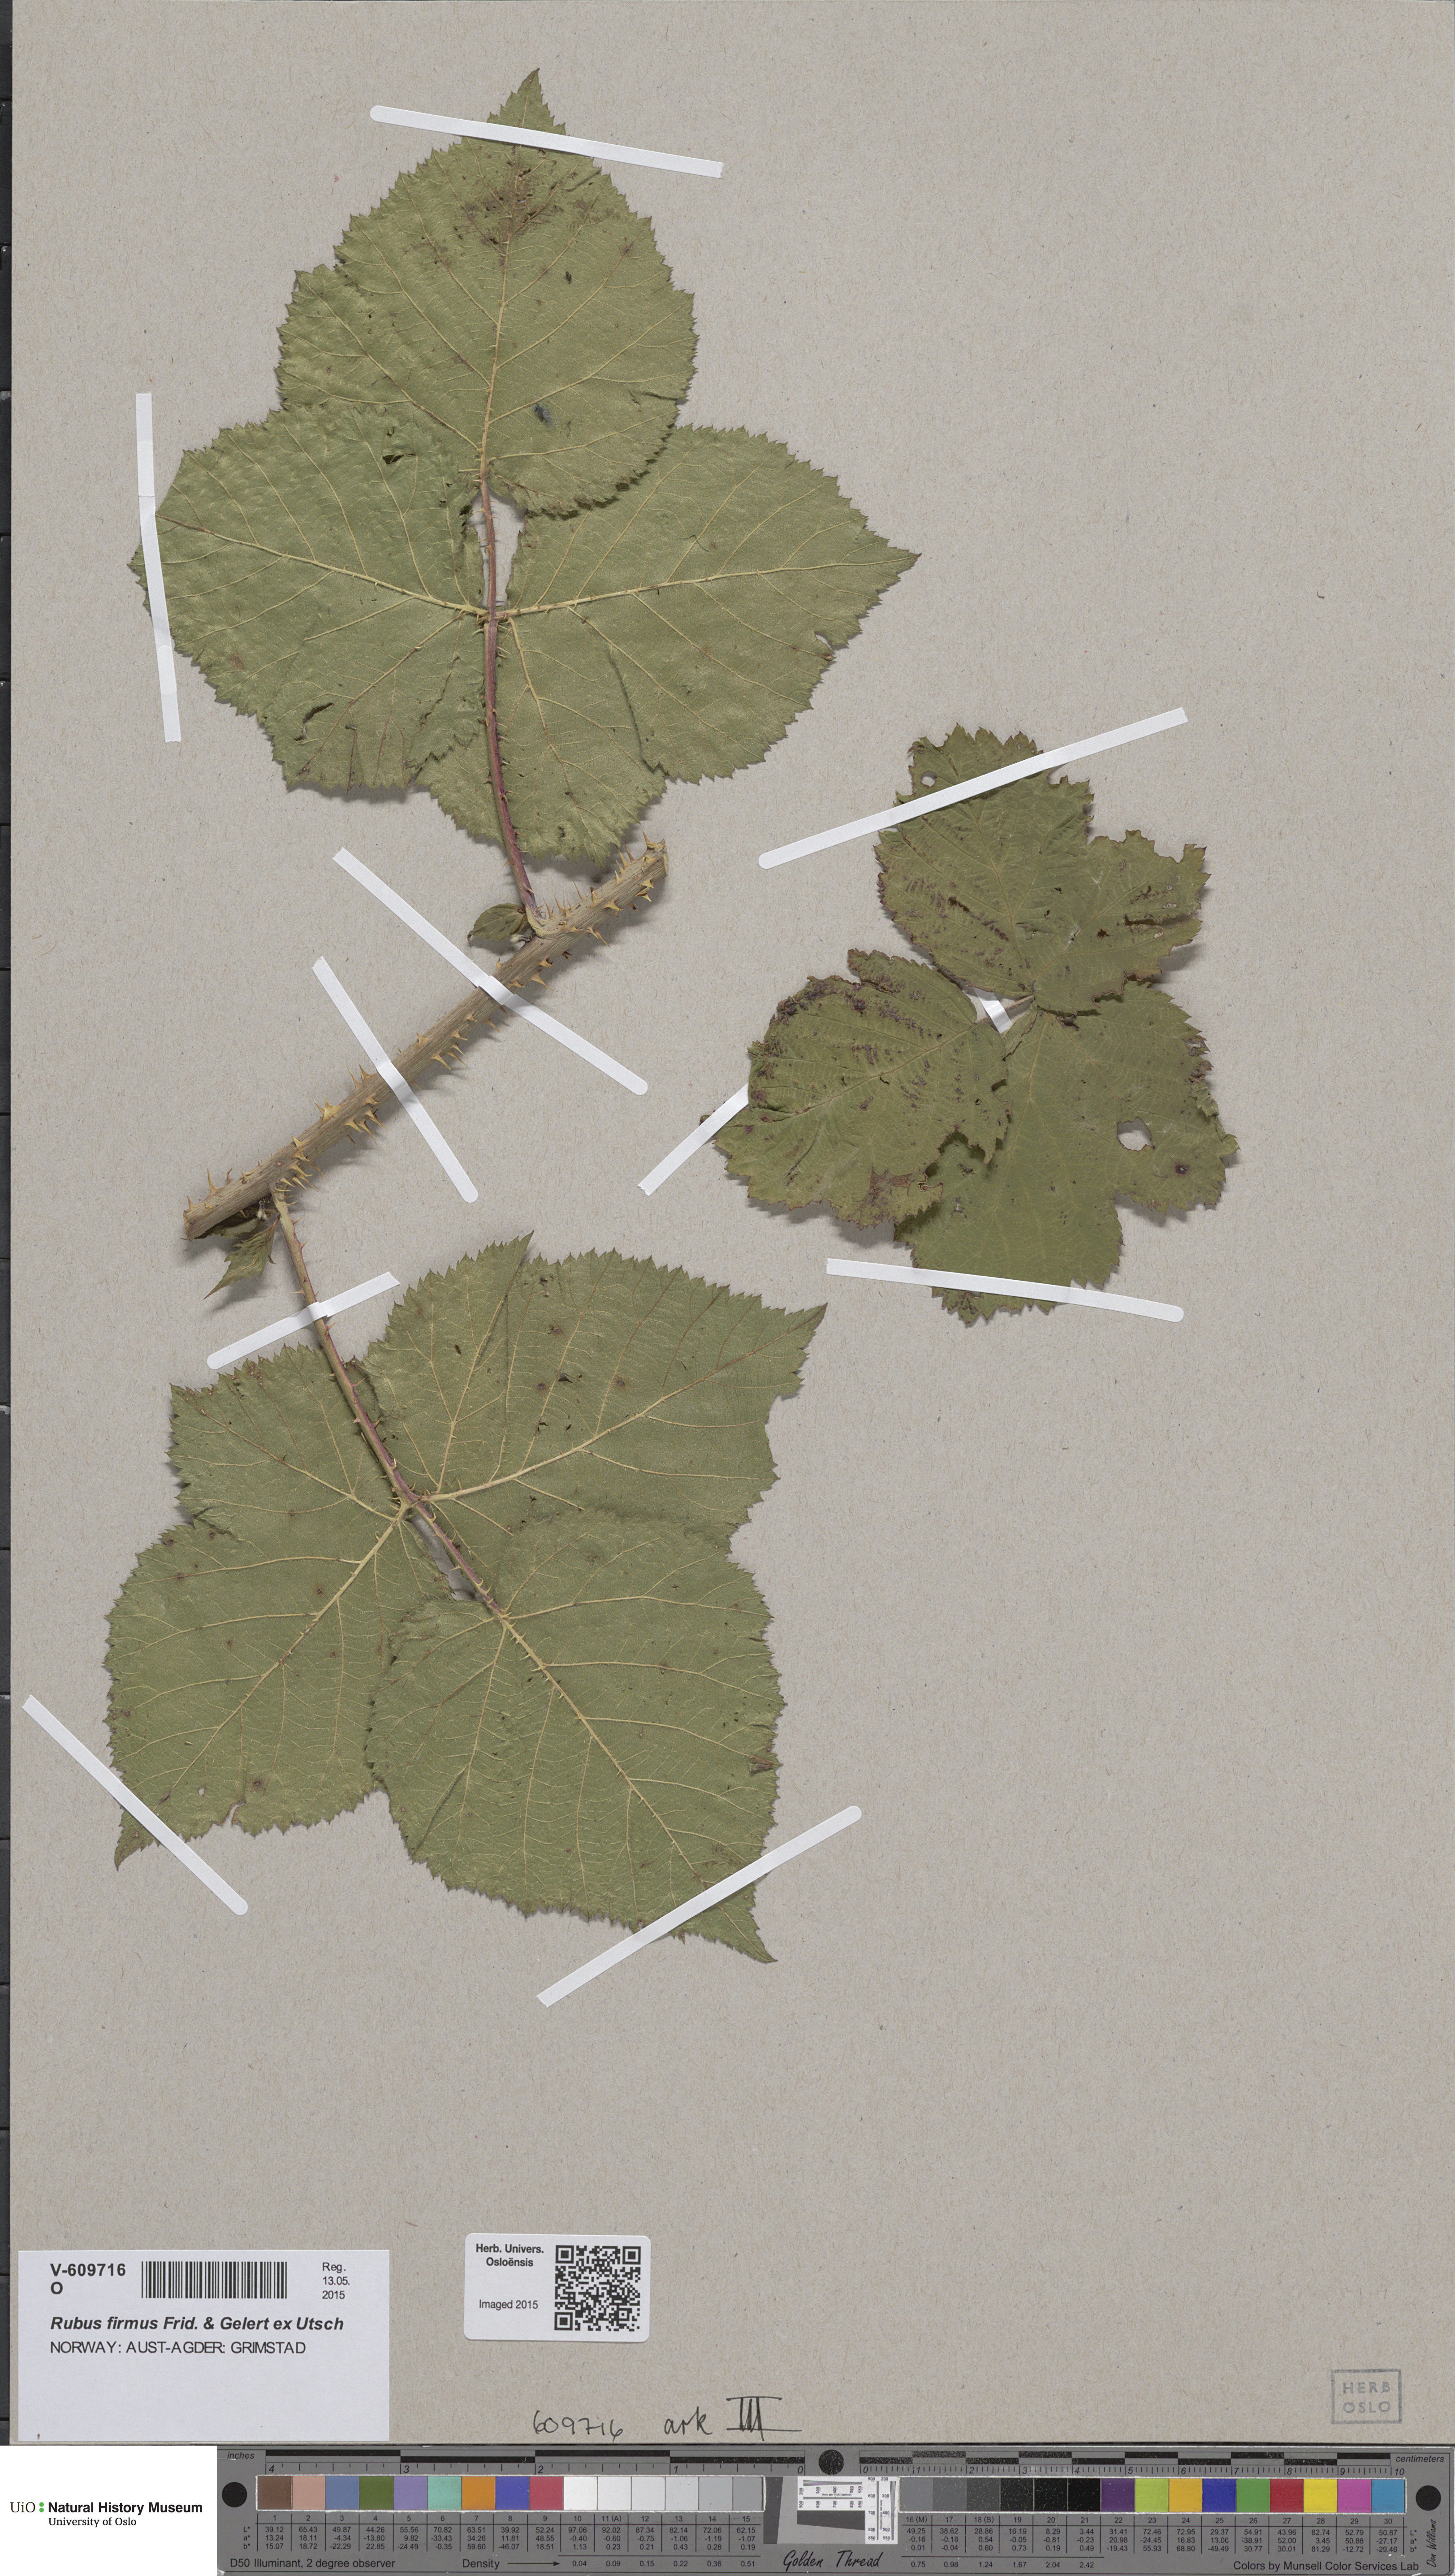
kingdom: Plantae
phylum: Tracheophyta
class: Magnoliopsida
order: Rosales
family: Rosaceae
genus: Rubus
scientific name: Rubus firmus
